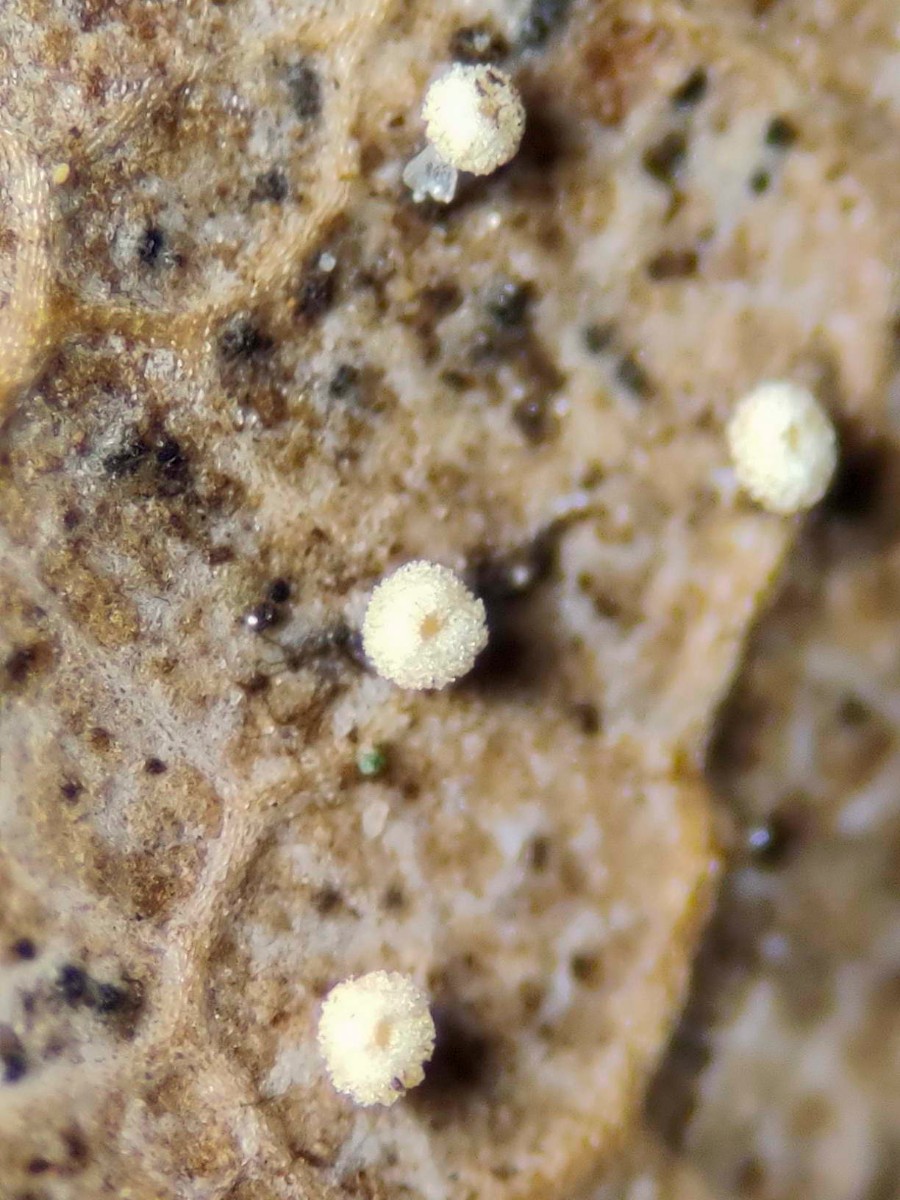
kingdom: Fungi
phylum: Ascomycota
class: Leotiomycetes
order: Helotiales
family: Lachnaceae
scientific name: Lachnaceae
